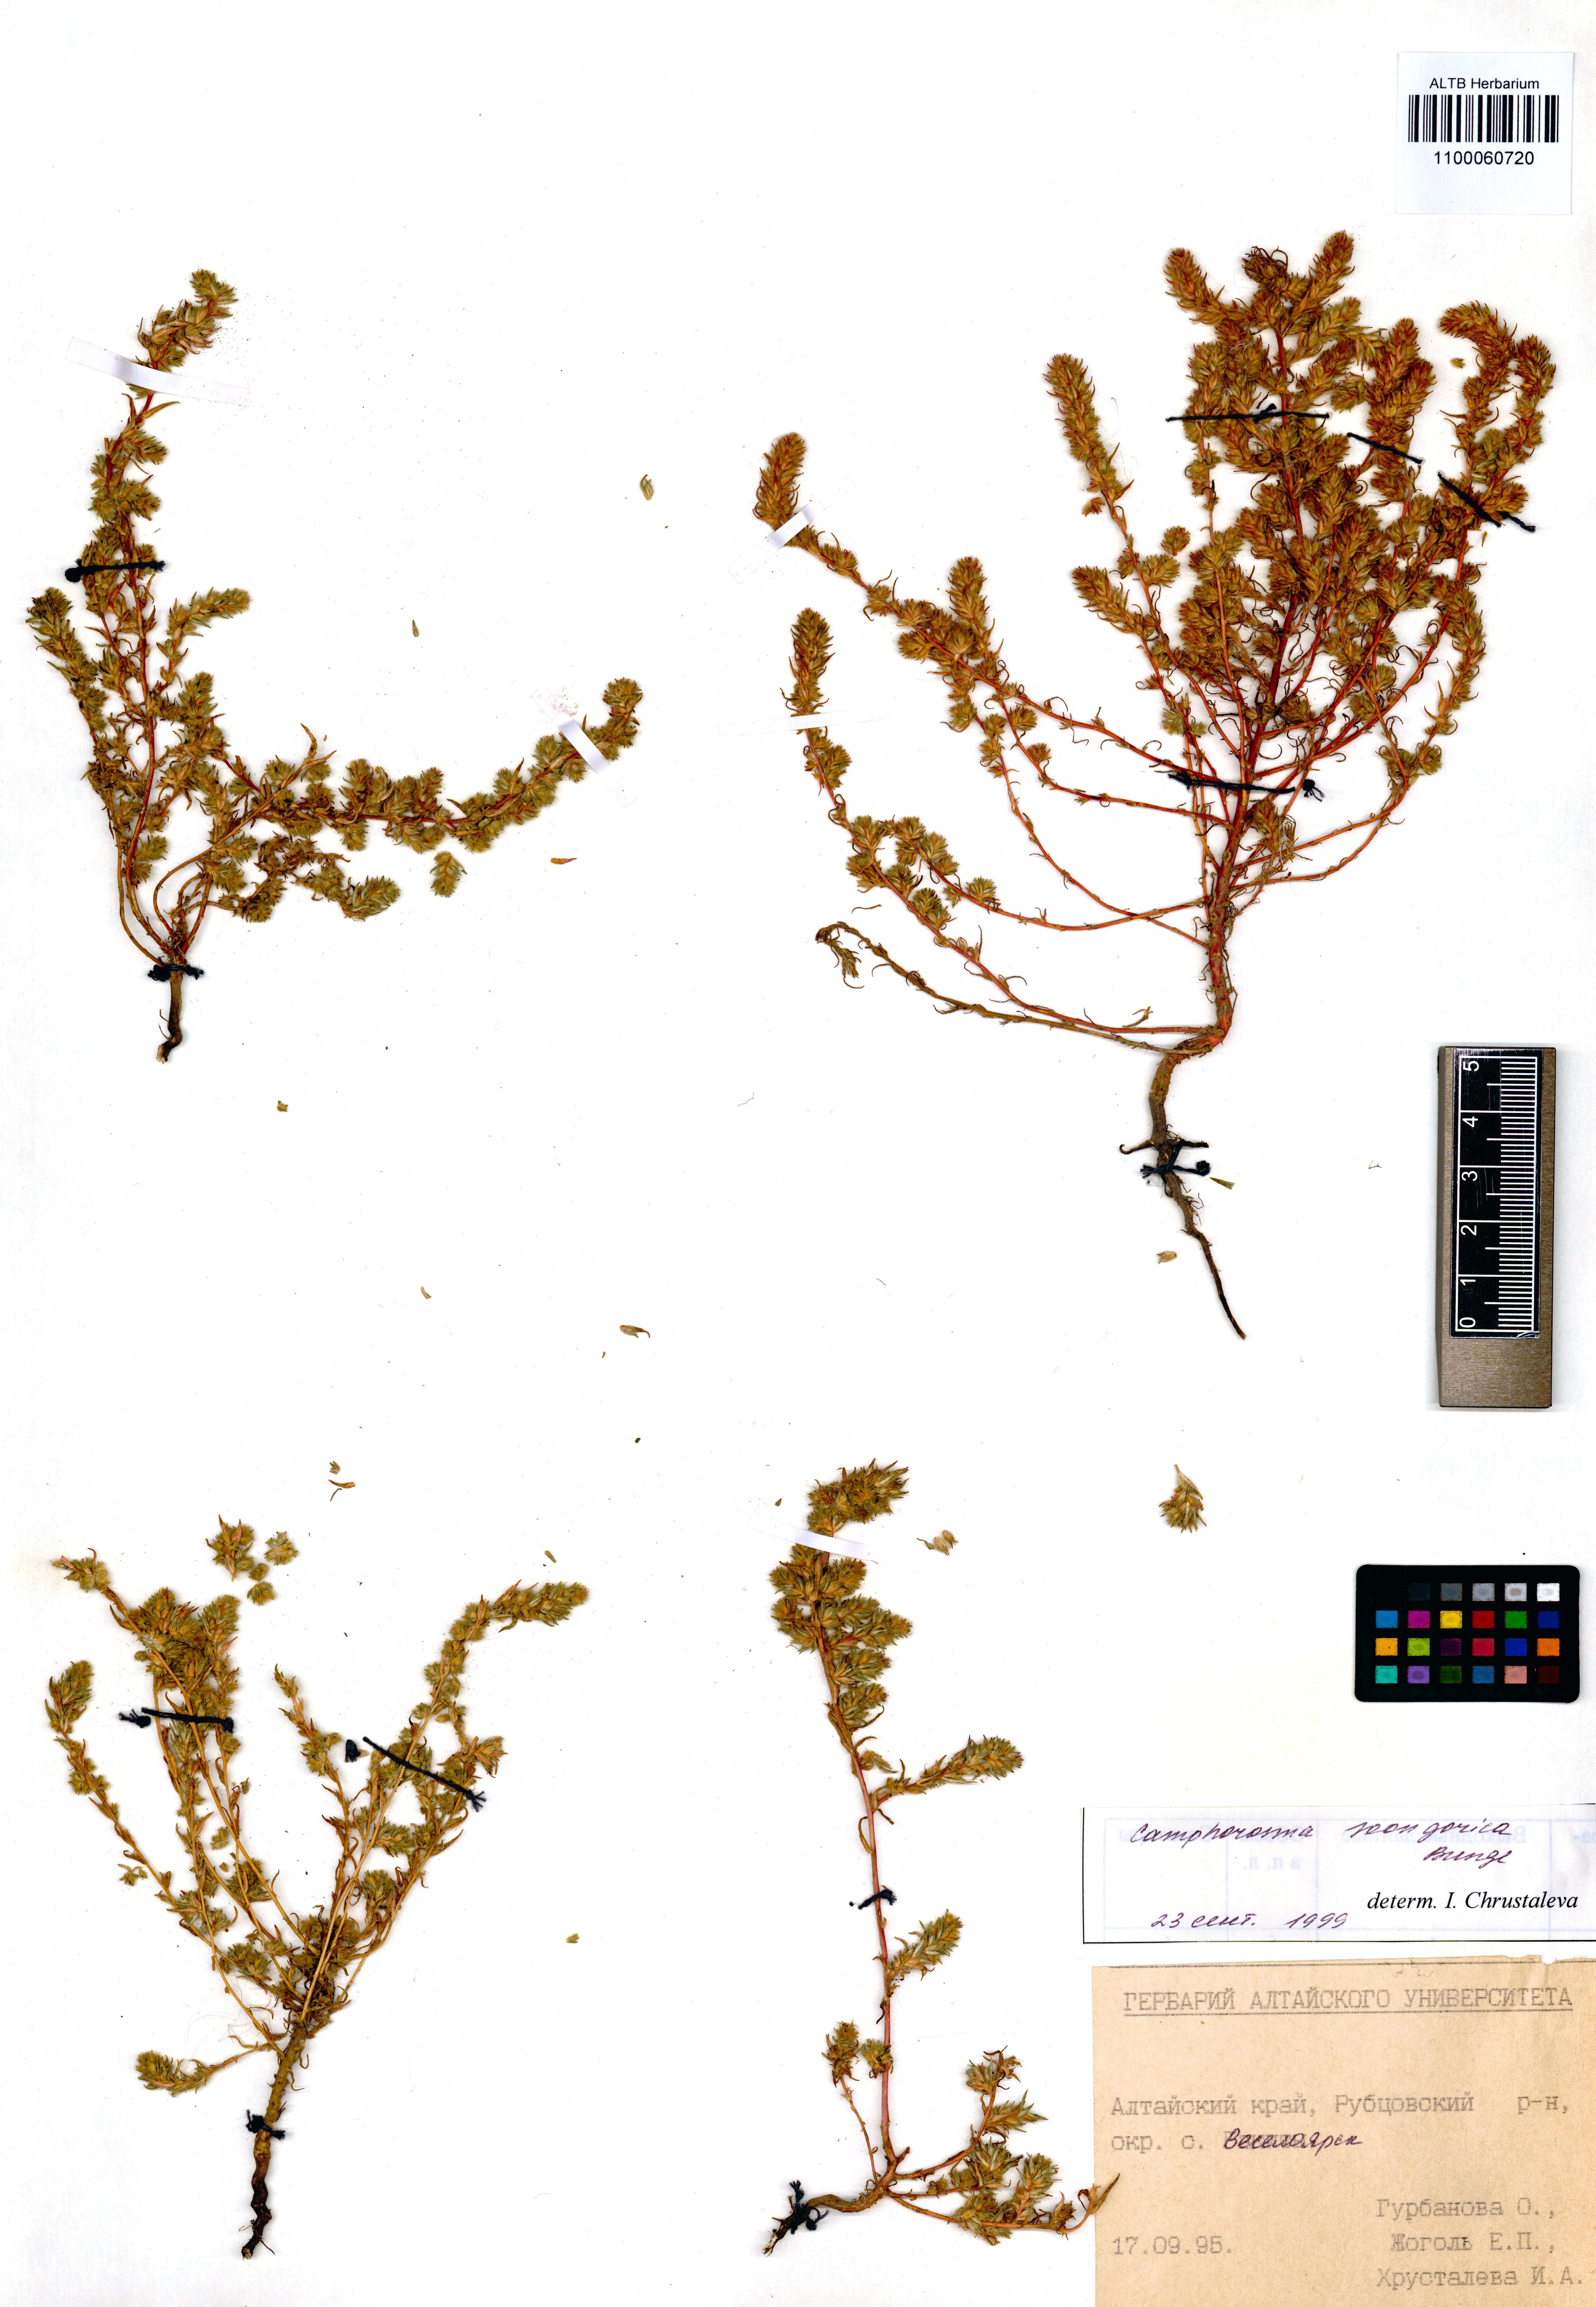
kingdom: Plantae
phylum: Tracheophyta
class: Magnoliopsida
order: Caryophyllales
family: Amaranthaceae
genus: Camphorosma
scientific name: Camphorosma songorica
